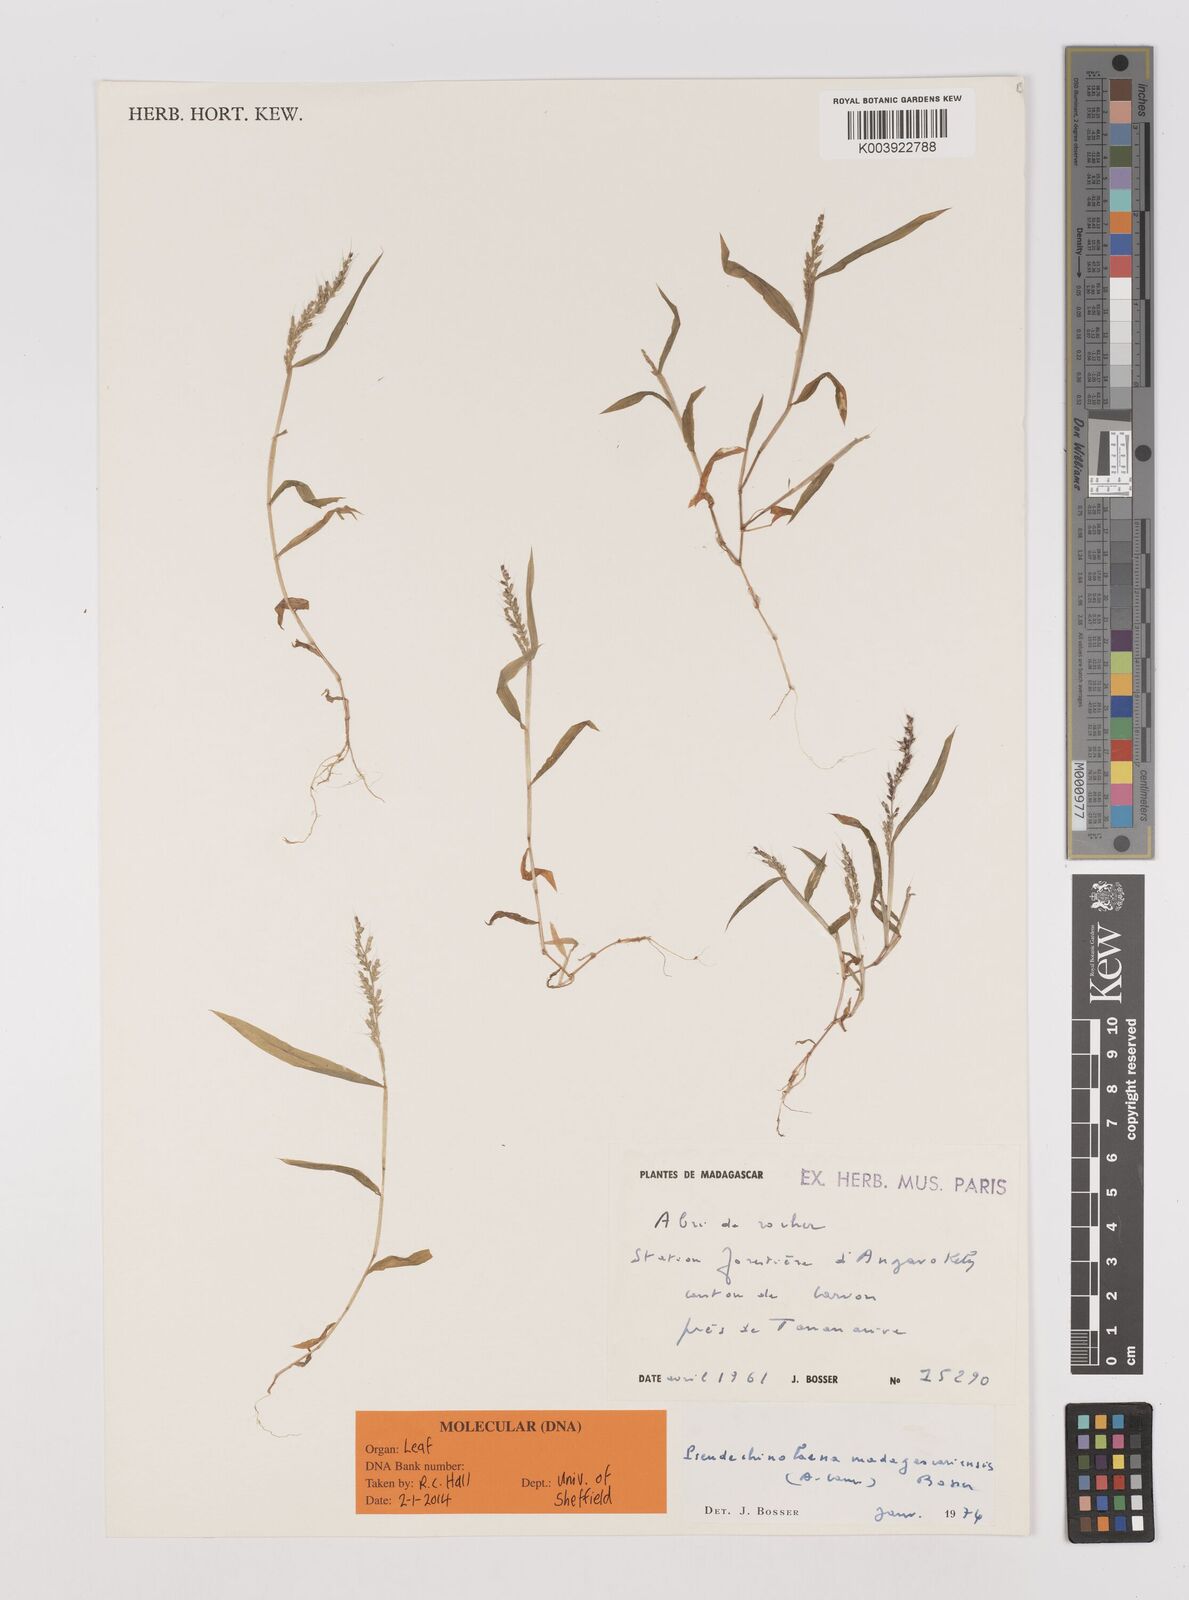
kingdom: Plantae
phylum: Tracheophyta
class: Liliopsida
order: Poales
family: Poaceae
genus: Pseudechinolaena
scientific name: Pseudechinolaena madagascariensis
